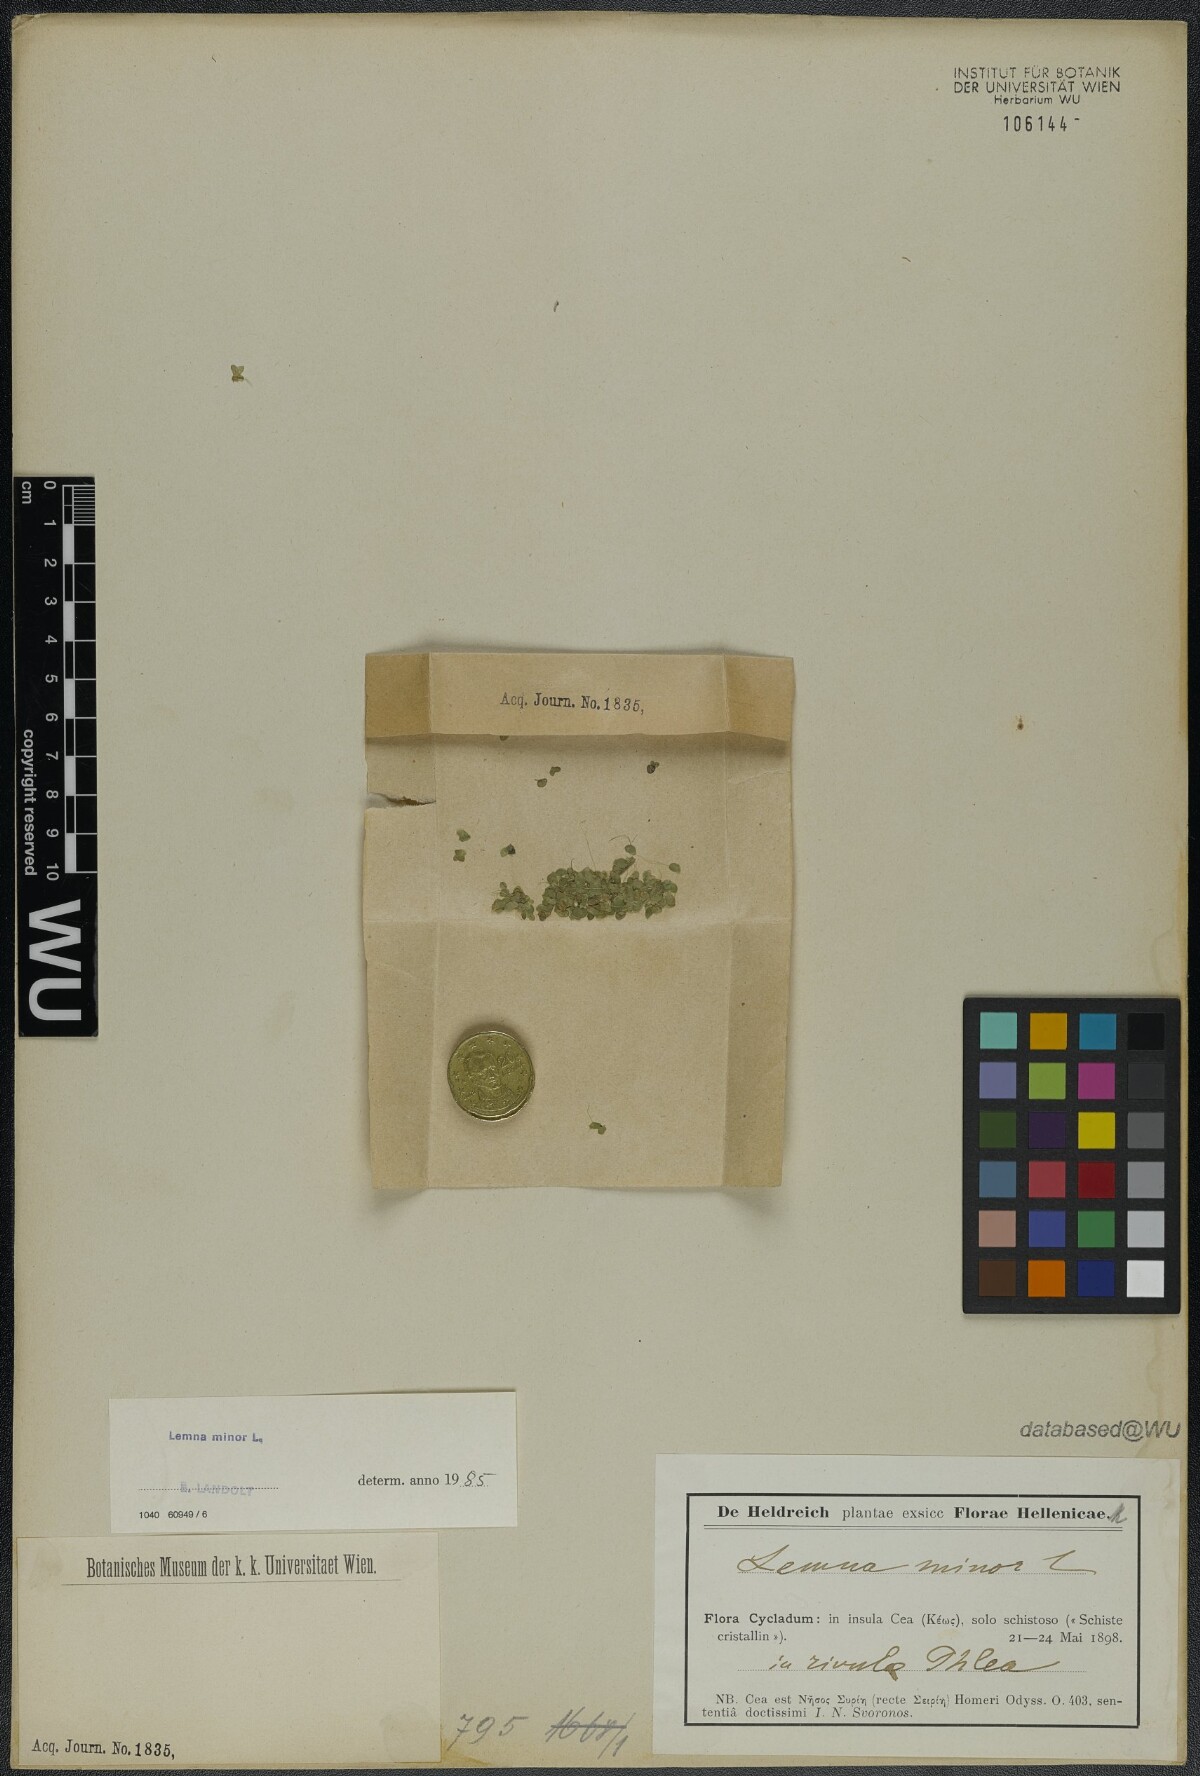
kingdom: Plantae
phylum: Tracheophyta
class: Liliopsida
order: Alismatales
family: Araceae
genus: Lemna
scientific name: Lemna minor
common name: Common duckweed
